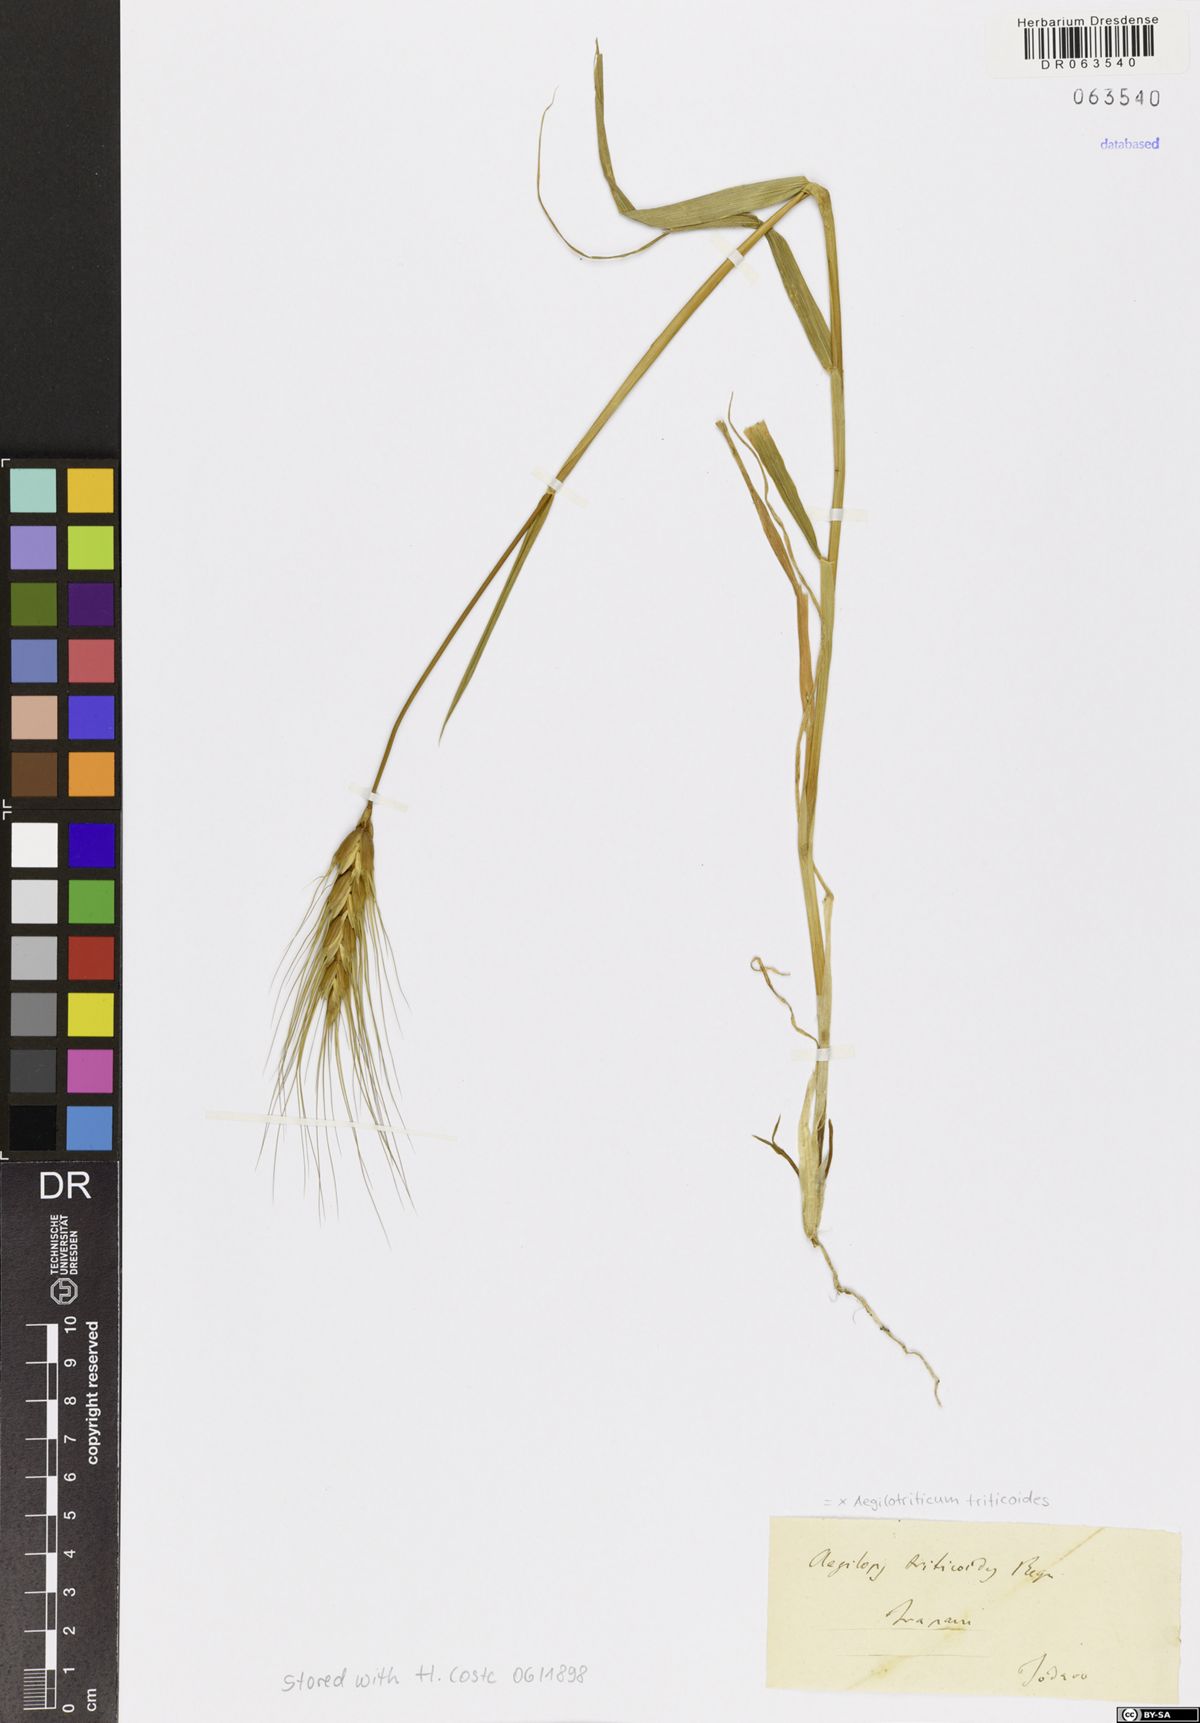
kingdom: Plantae
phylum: Tracheophyta
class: Liliopsida
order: Poales
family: Poaceae
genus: Aegilotriticum
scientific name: Aegilotriticum triticoides
